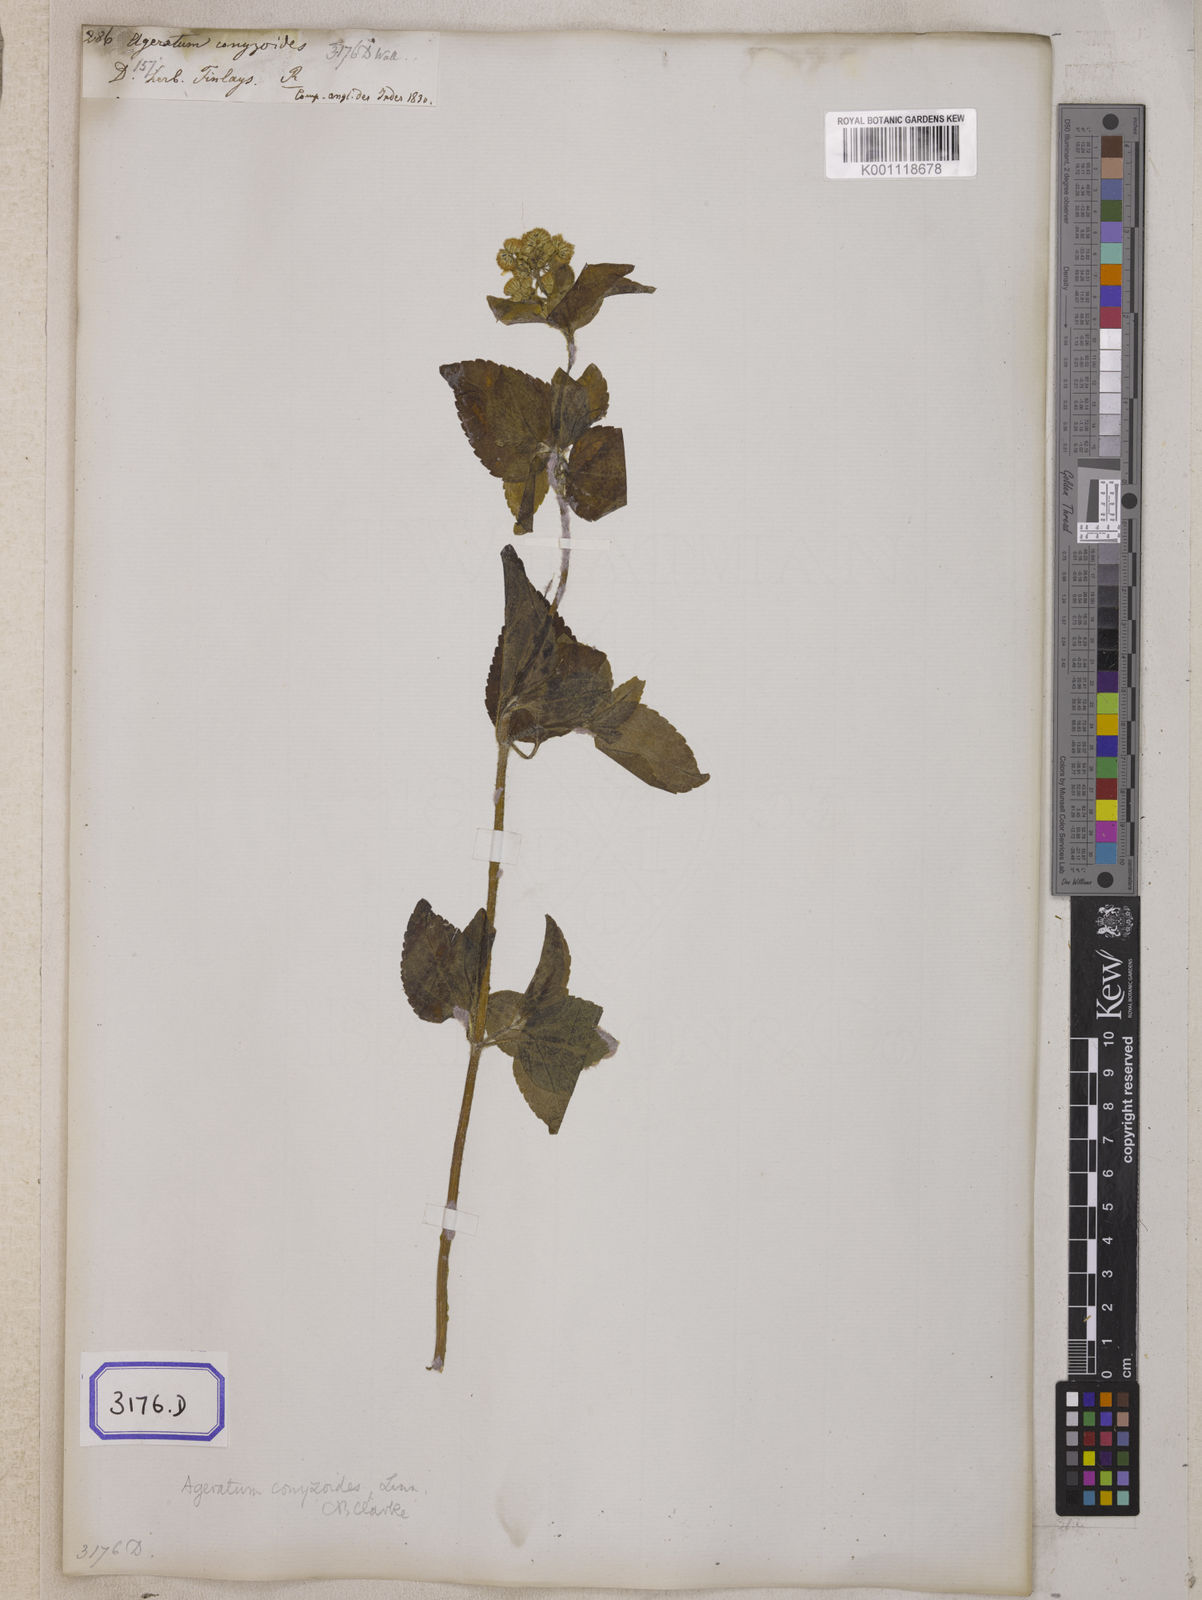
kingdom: Plantae
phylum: Tracheophyta
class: Magnoliopsida
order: Asterales
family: Asteraceae
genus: Ageratum
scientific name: Ageratum conyzoides
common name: Tropical whiteweed
